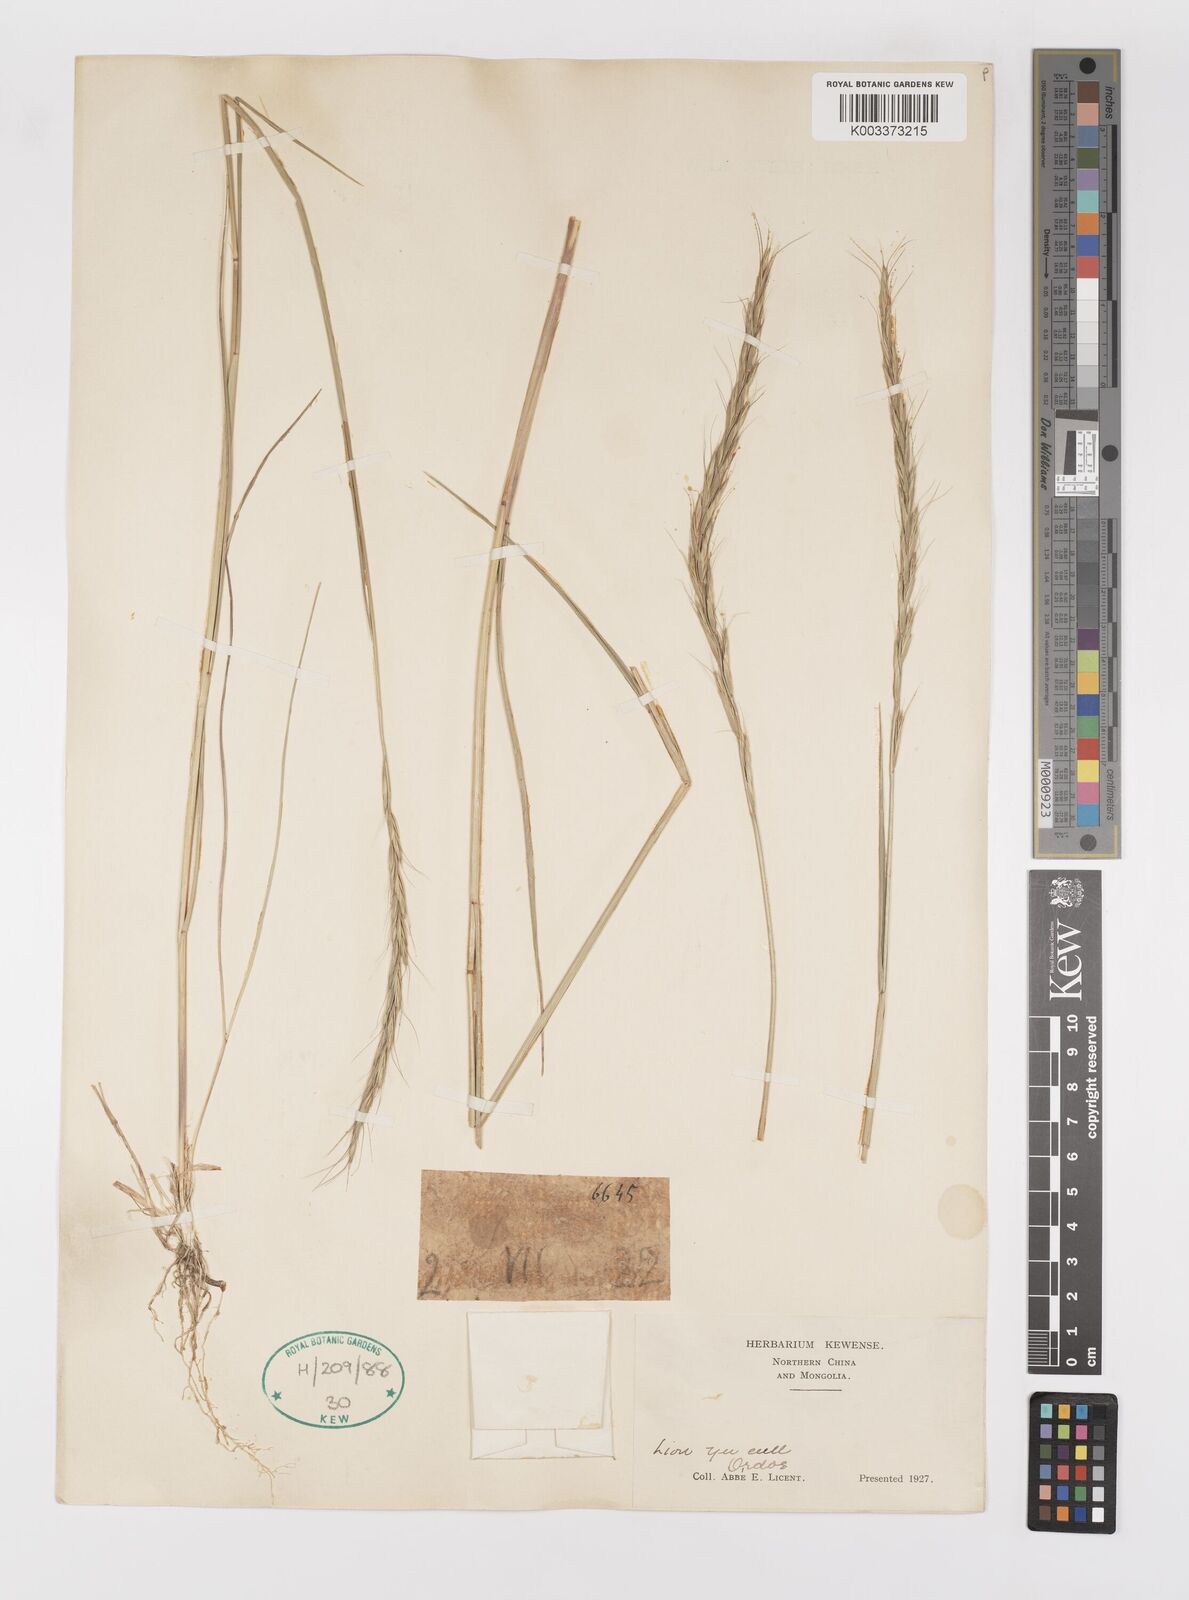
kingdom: Plantae
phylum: Tracheophyta
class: Liliopsida
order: Poales
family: Poaceae
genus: Elymus
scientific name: Elymus
